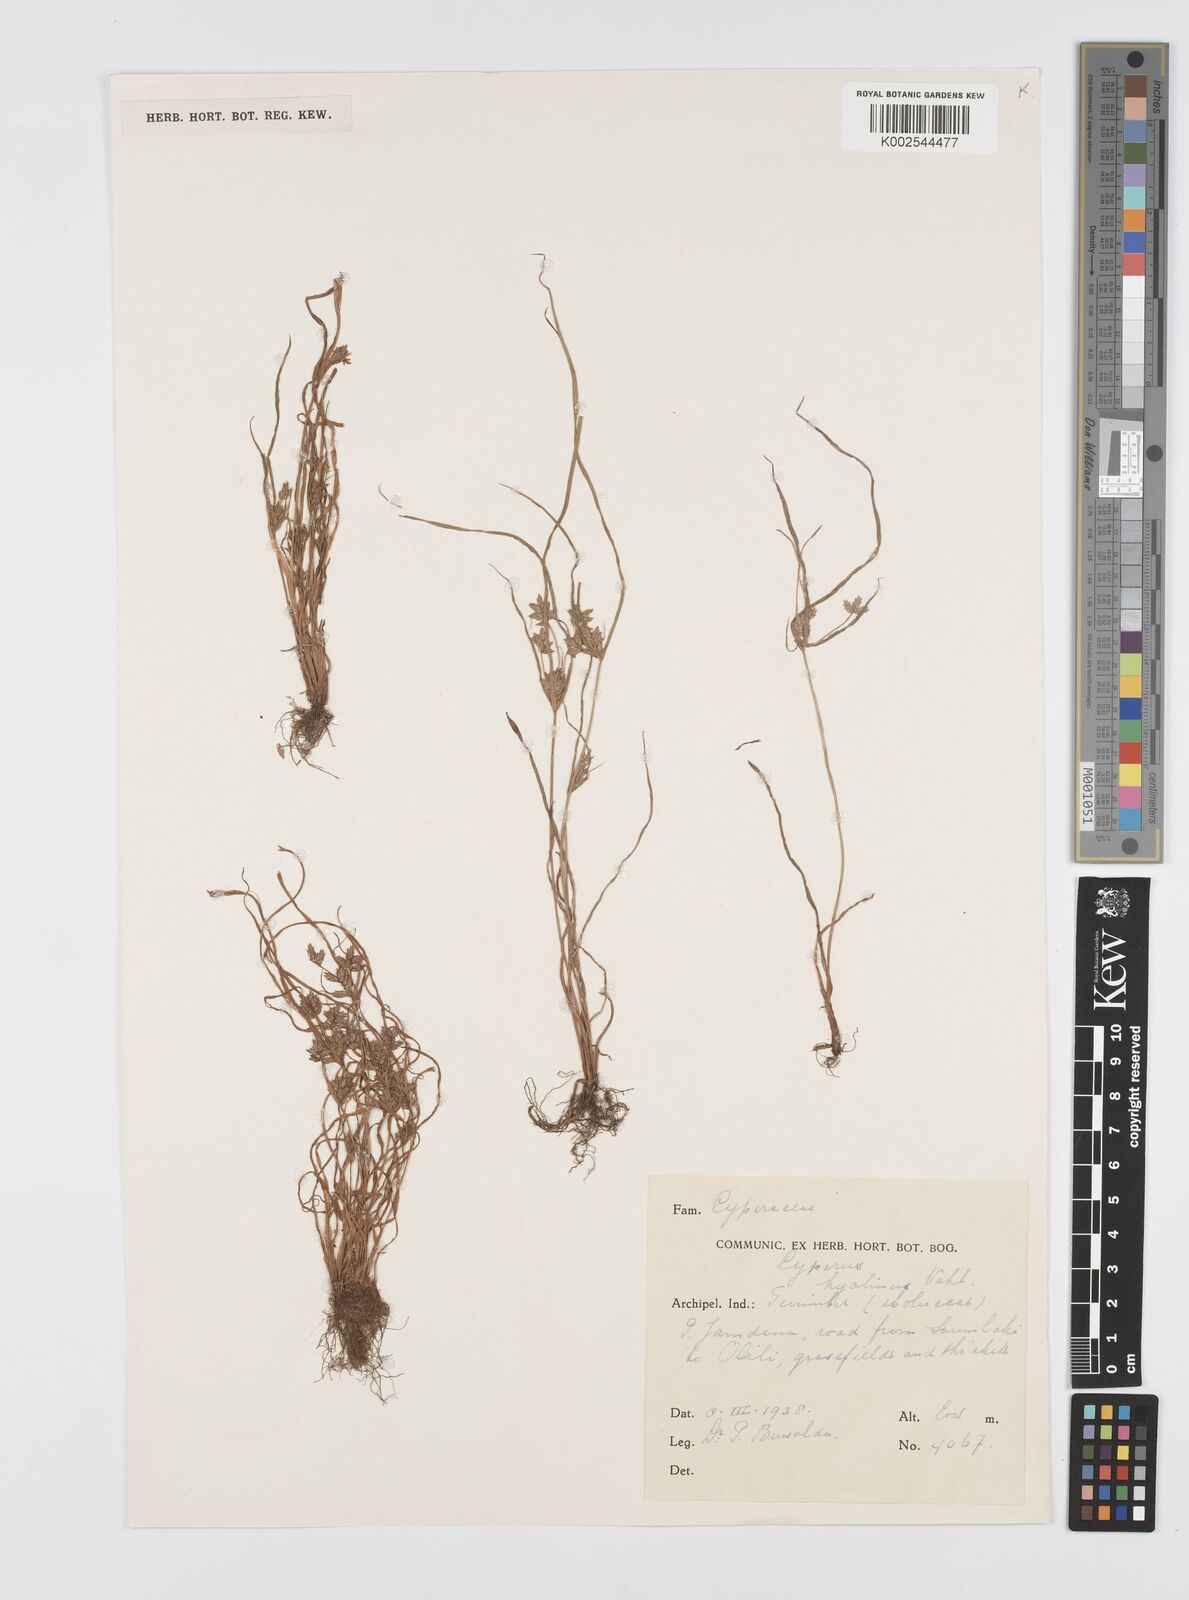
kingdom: Plantae
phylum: Tracheophyta
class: Liliopsida
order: Poales
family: Cyperaceae
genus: Cyperus
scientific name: Cyperus hyalinus
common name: Queensland sedge
